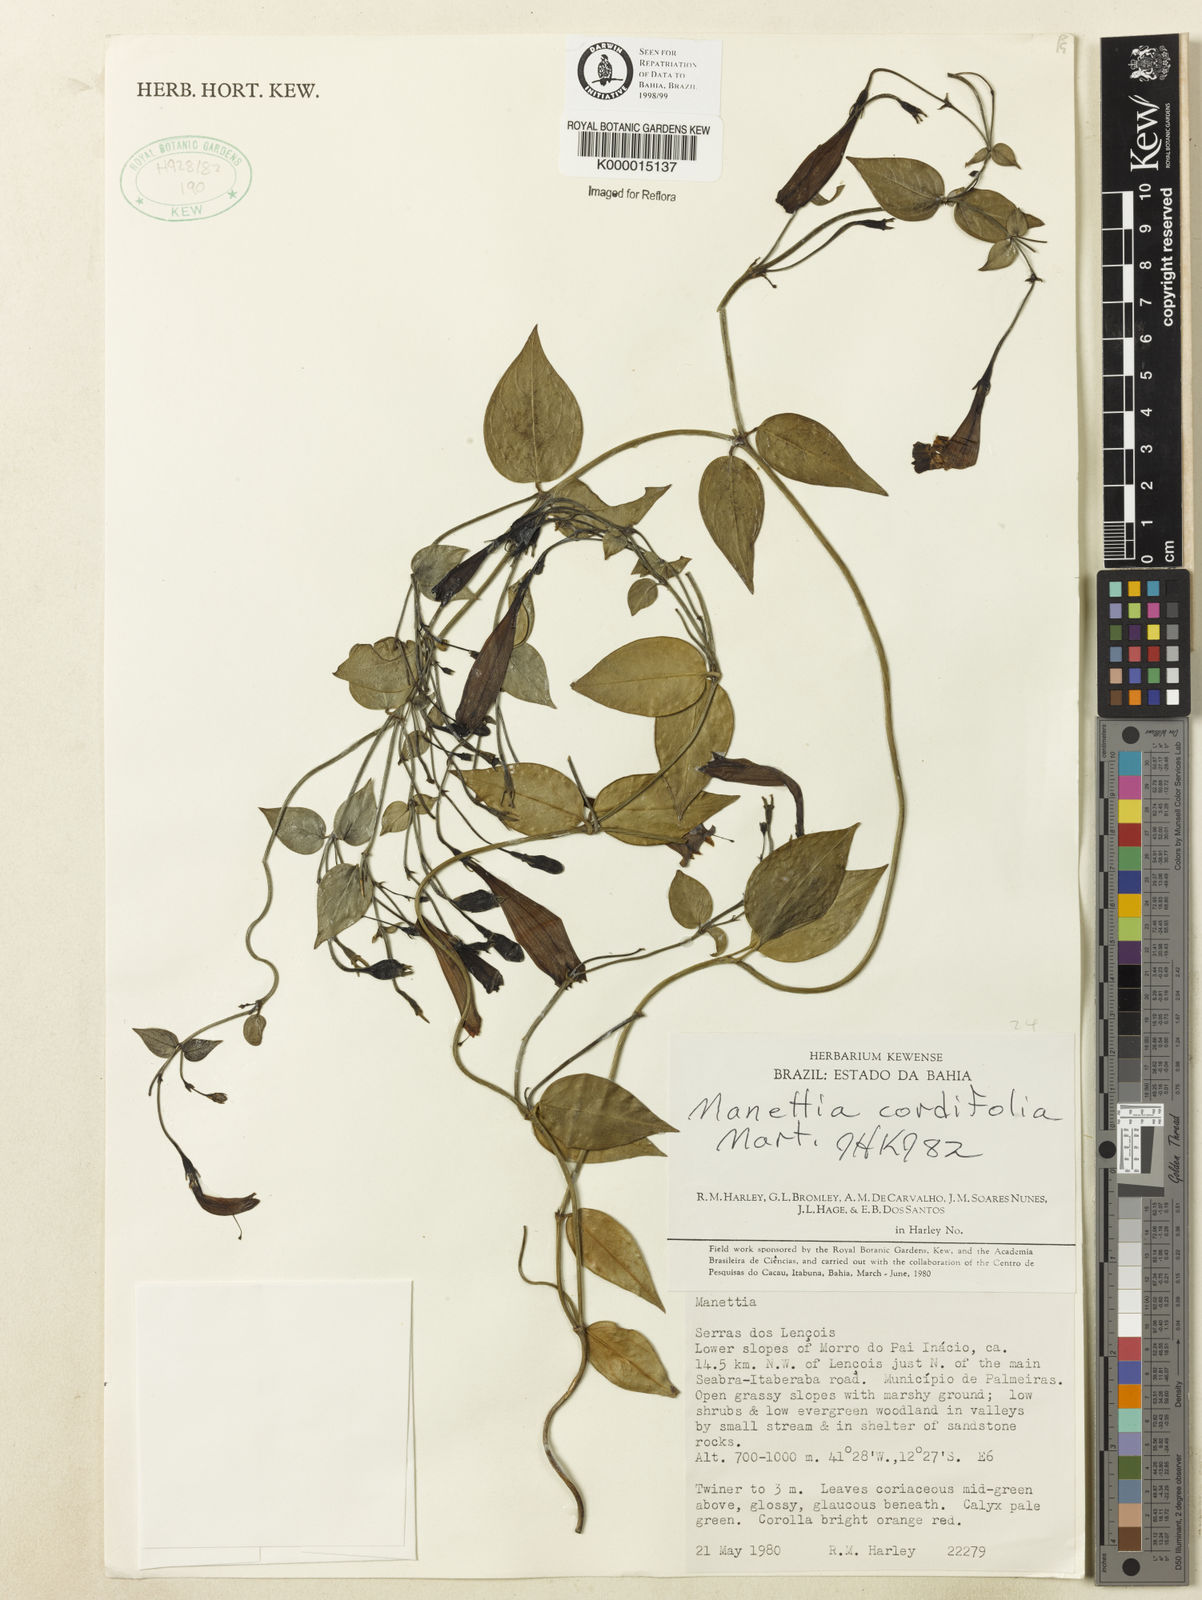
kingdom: Plantae
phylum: Tracheophyta
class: Magnoliopsida
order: Gentianales
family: Rubiaceae
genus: Manettia
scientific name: Manettia cordifolia
